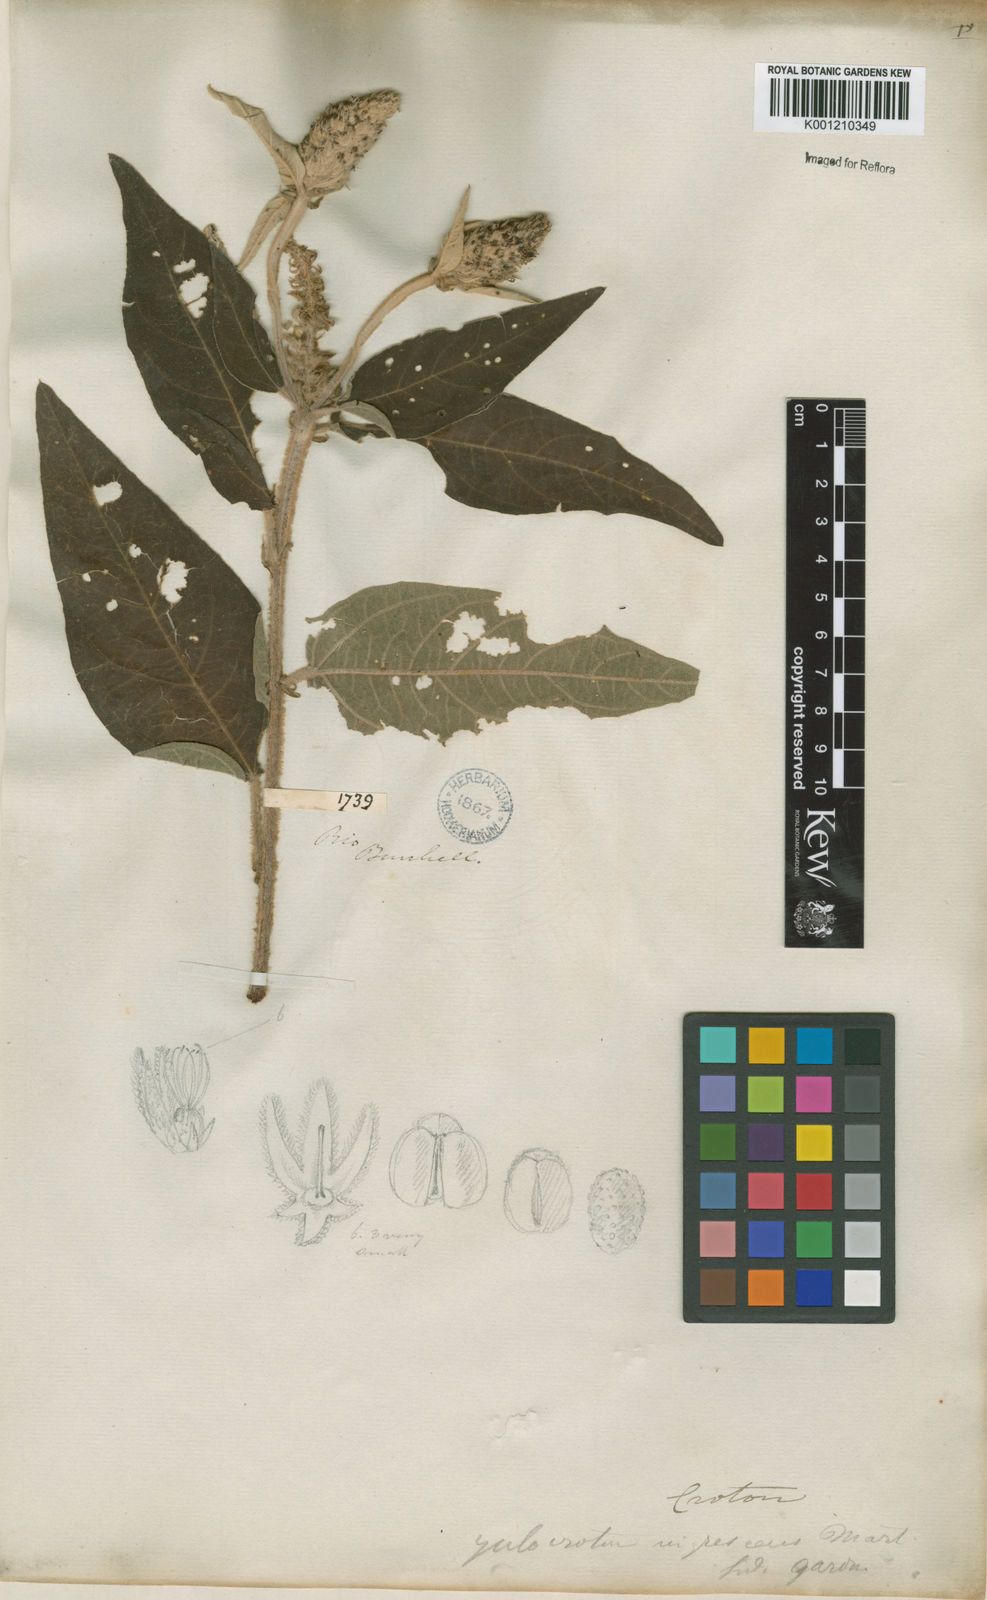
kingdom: Plantae
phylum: Tracheophyta
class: Magnoliopsida
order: Malpighiales
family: Euphorbiaceae
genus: Croton
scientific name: Croton gnaphaloides
